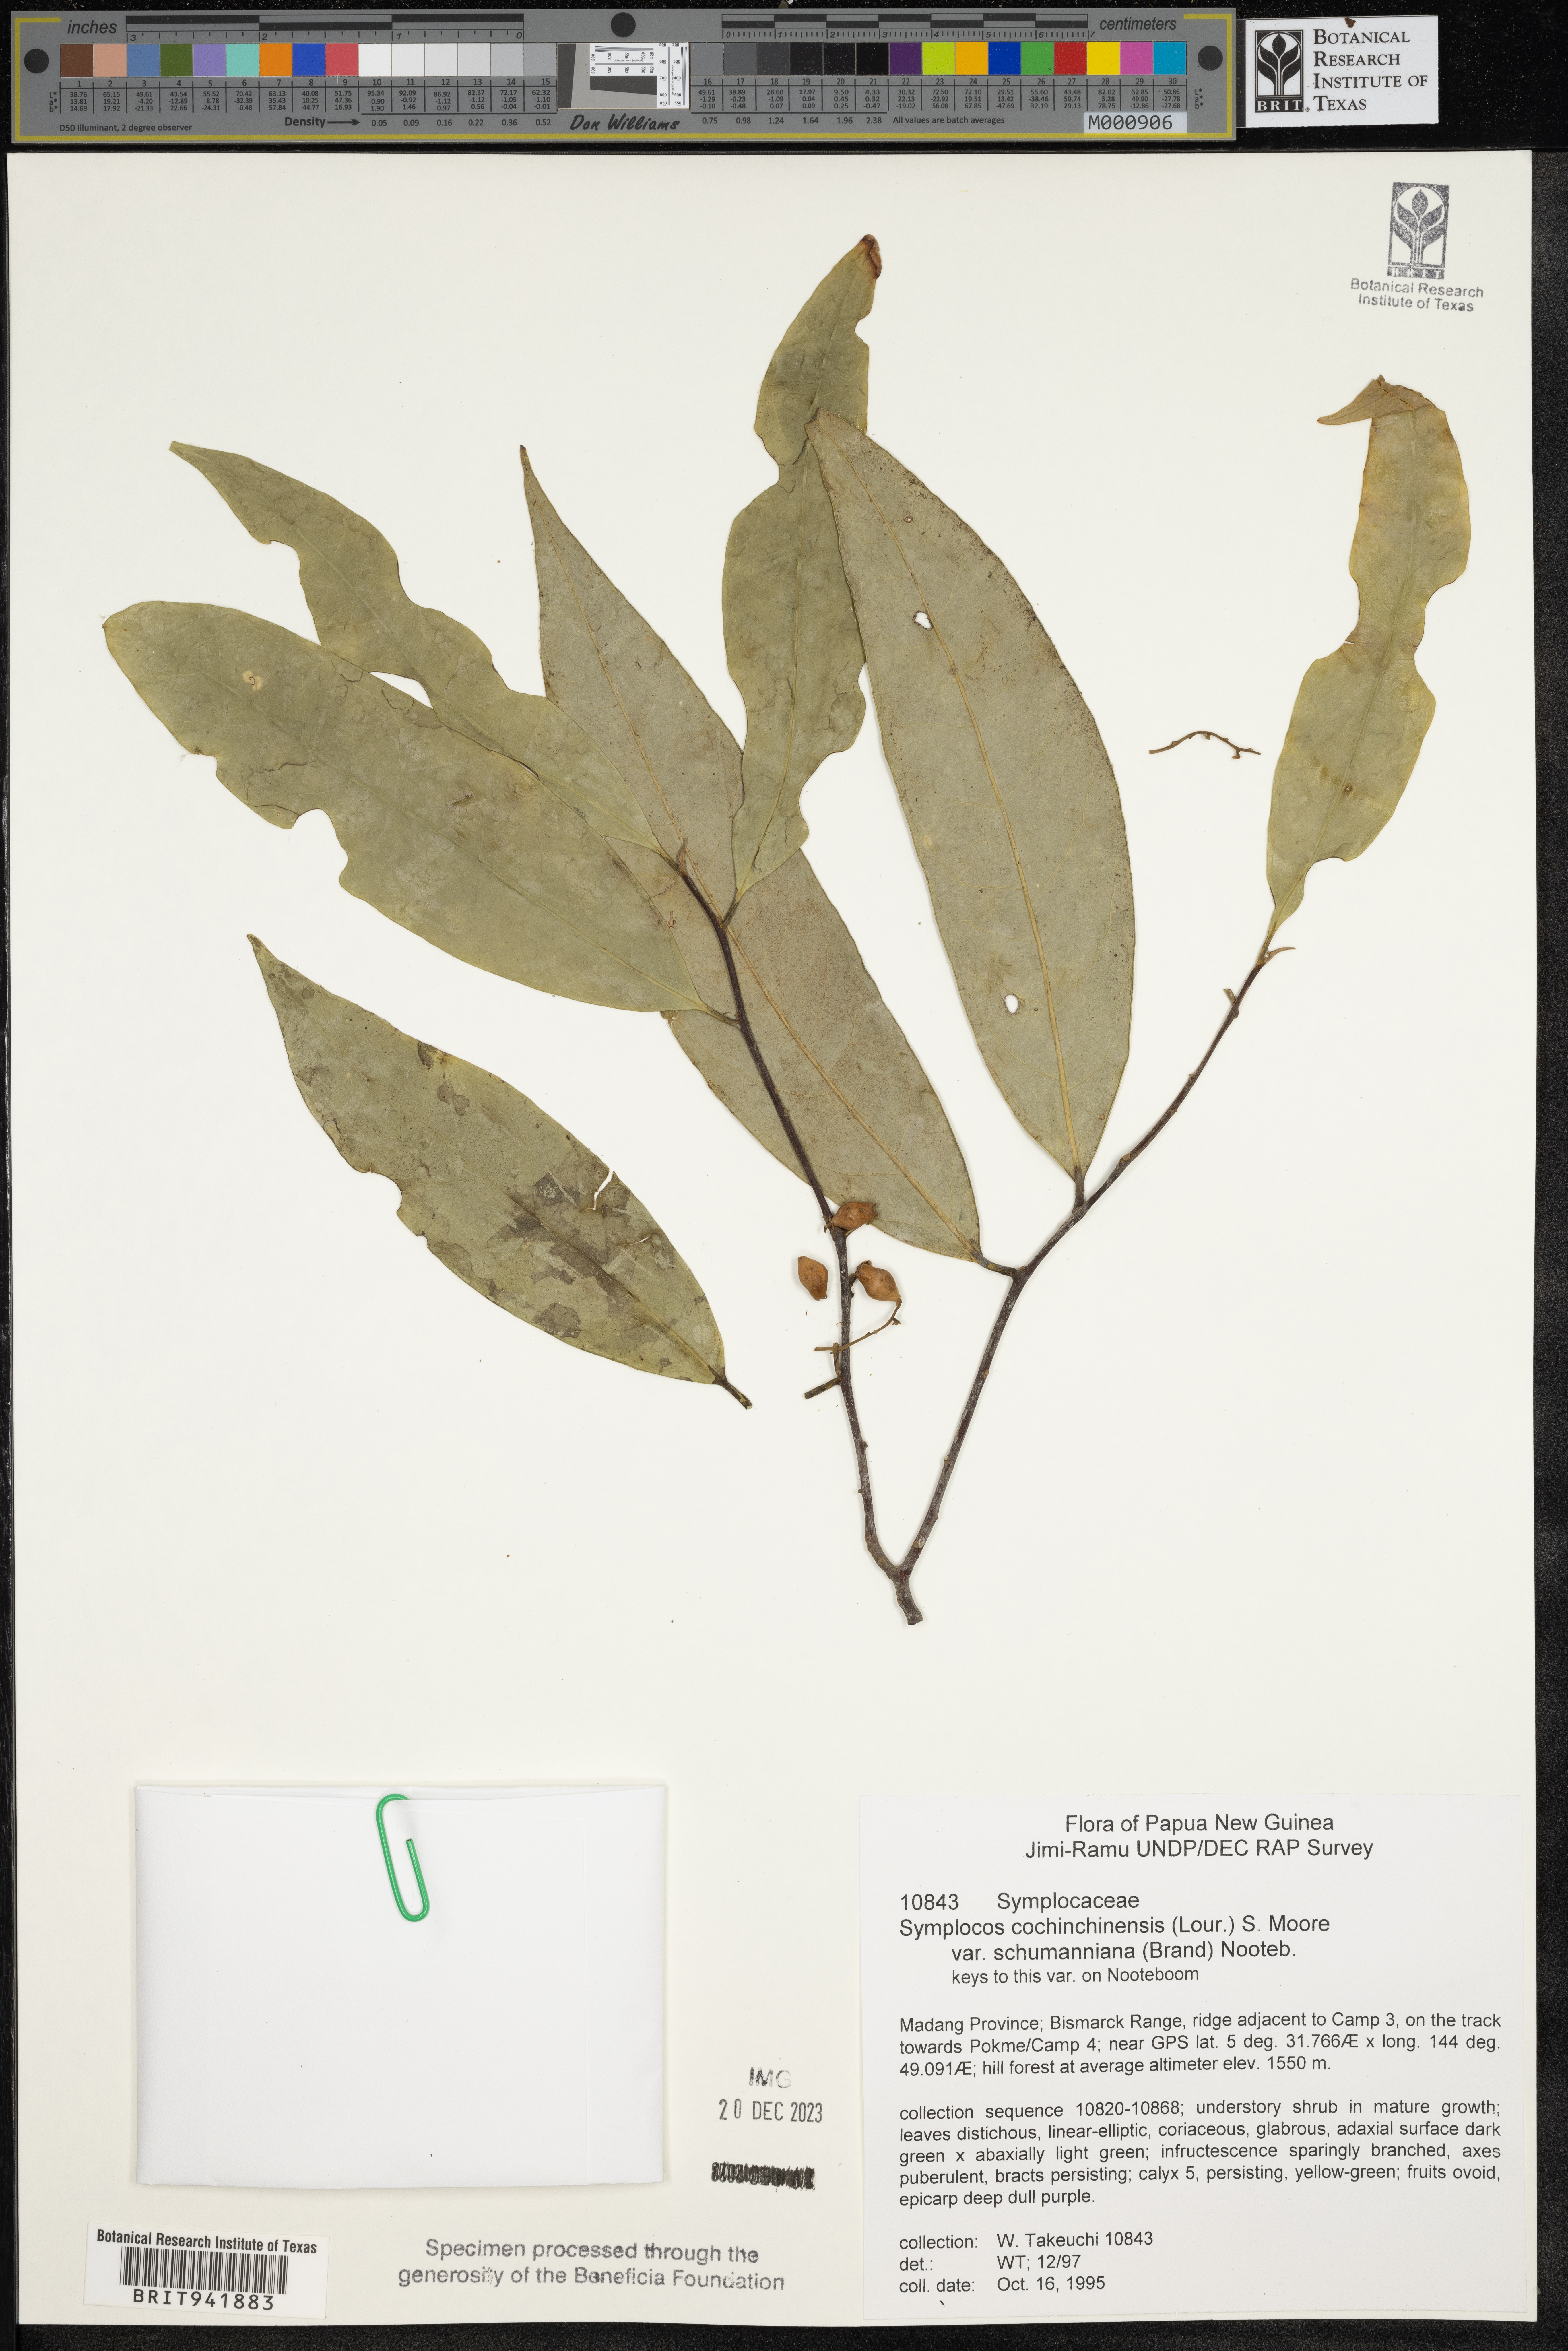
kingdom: Plantae
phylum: Tracheophyta
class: Magnoliopsida
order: Ericales
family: Symplocaceae
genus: Symplocos
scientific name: Symplocos cochinchinensis
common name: Buff hazelwood
